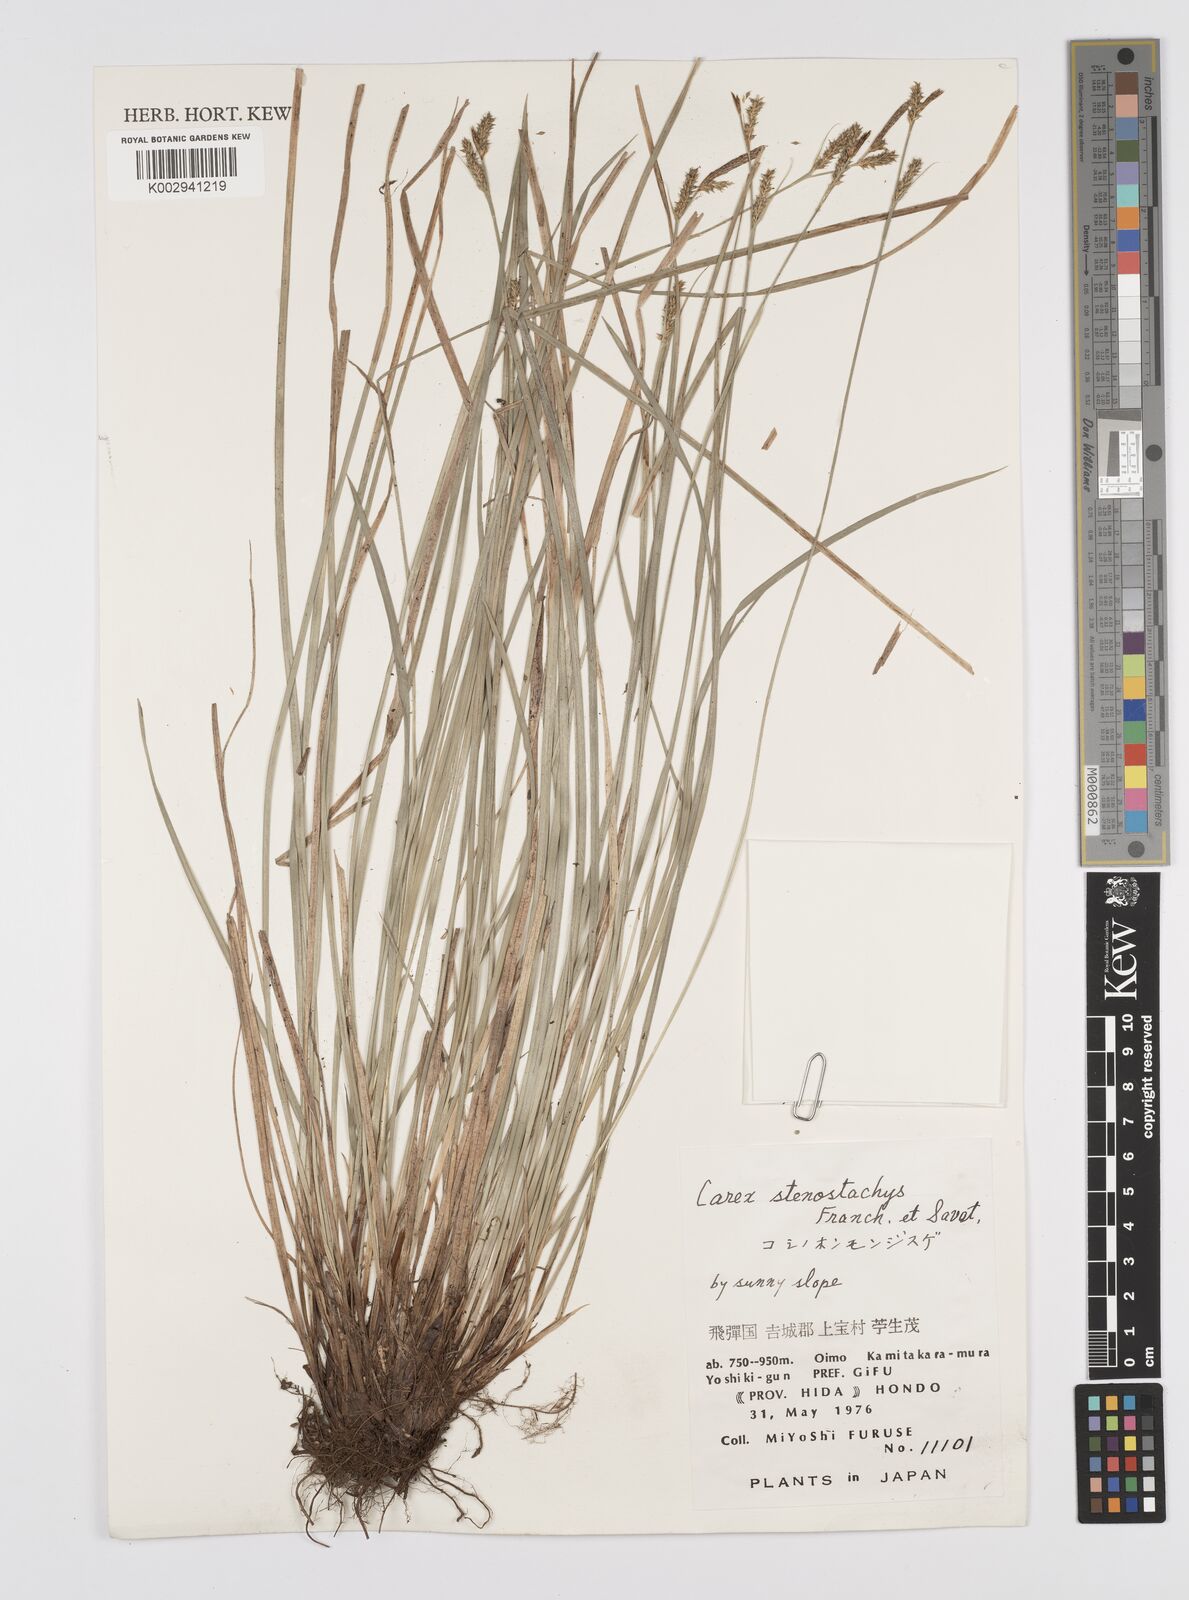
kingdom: Plantae
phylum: Tracheophyta
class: Liliopsida
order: Poales
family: Cyperaceae
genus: Carex
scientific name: Carex pisiformis
